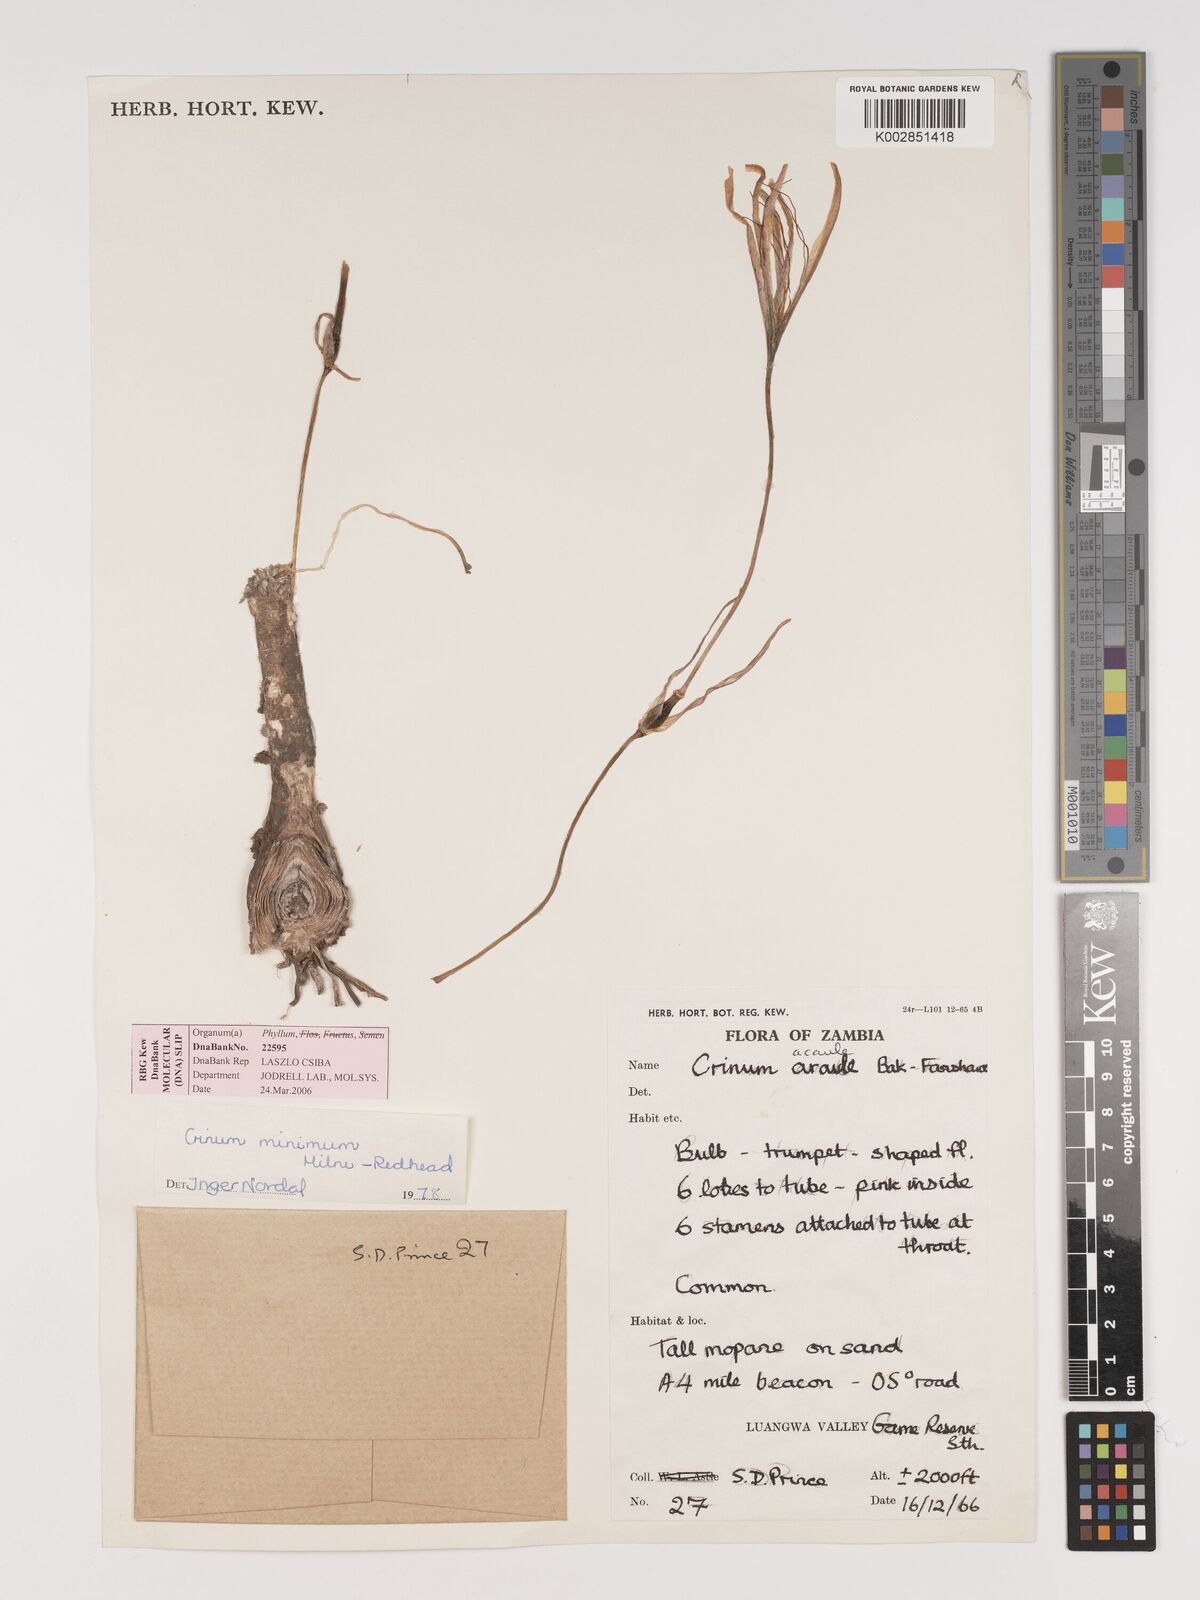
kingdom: Plantae
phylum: Tracheophyta
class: Liliopsida
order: Asparagales
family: Amaryllidaceae
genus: Crinum
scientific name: Crinum minimum
